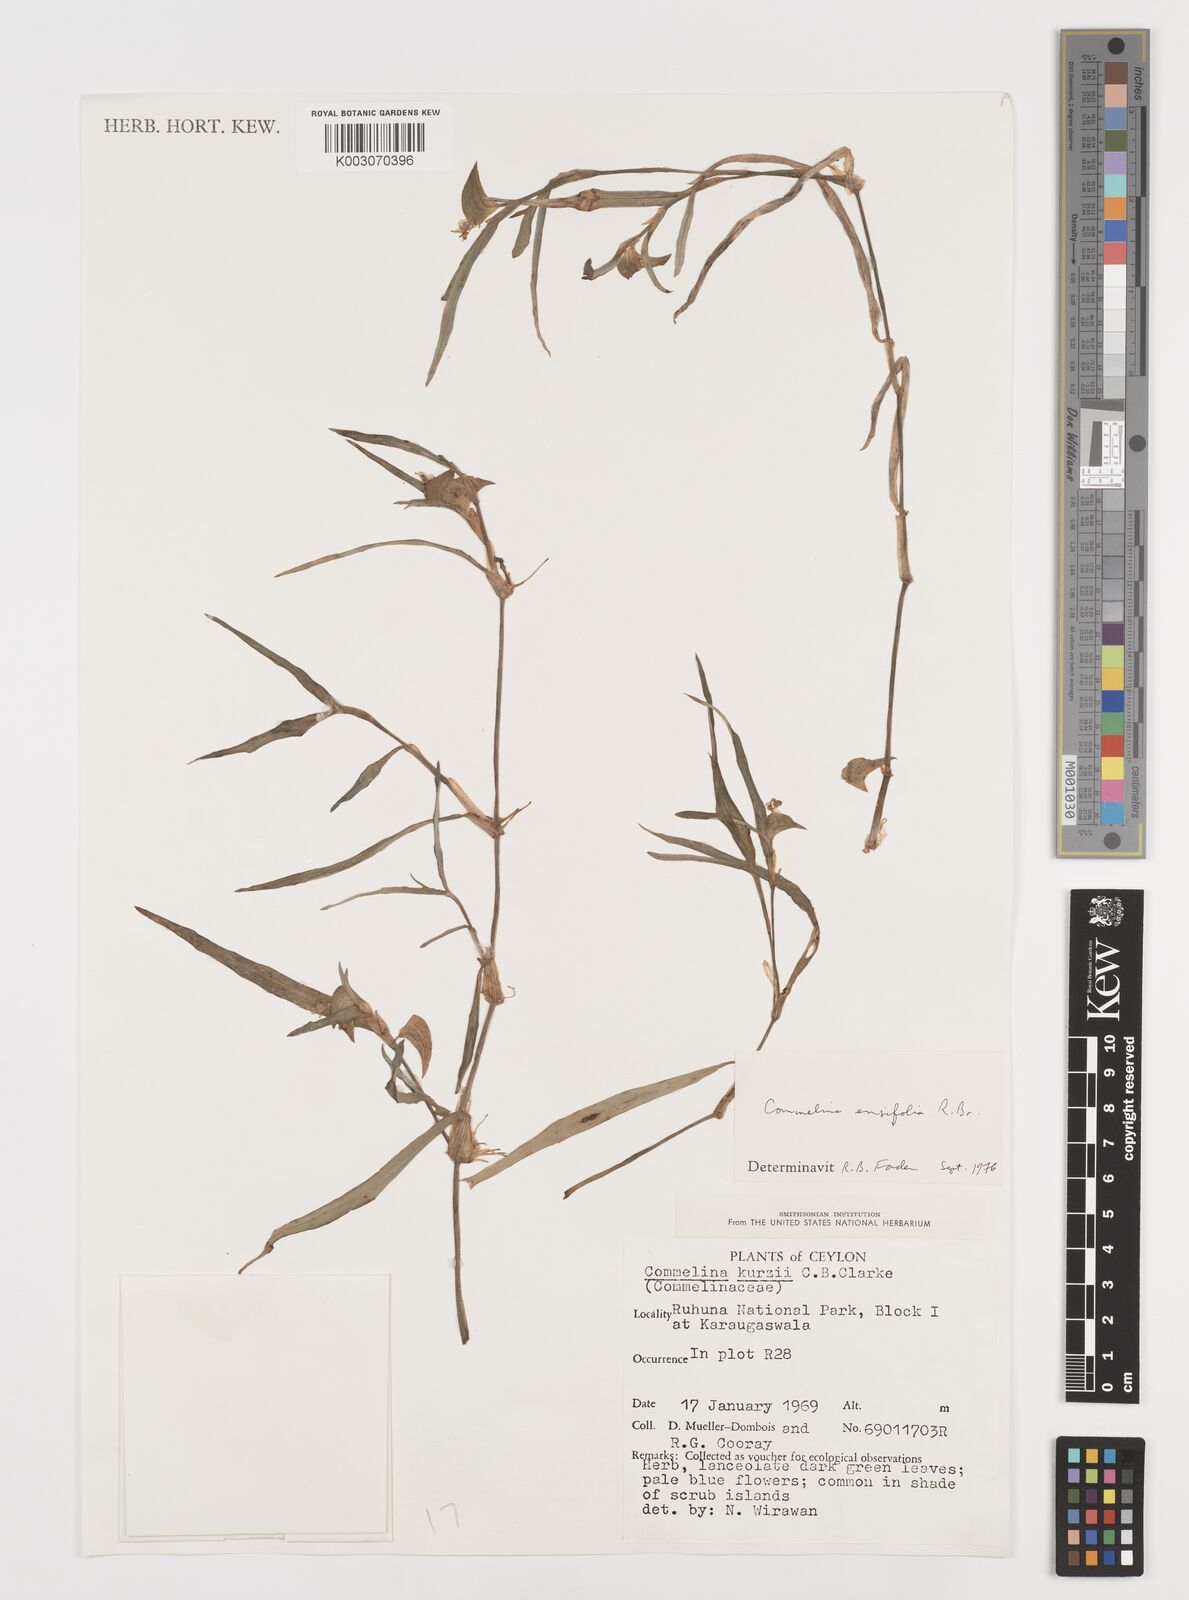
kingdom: Plantae
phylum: Tracheophyta
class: Liliopsida
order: Commelinales
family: Commelinaceae
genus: Commelina
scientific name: Commelina ensifolia
